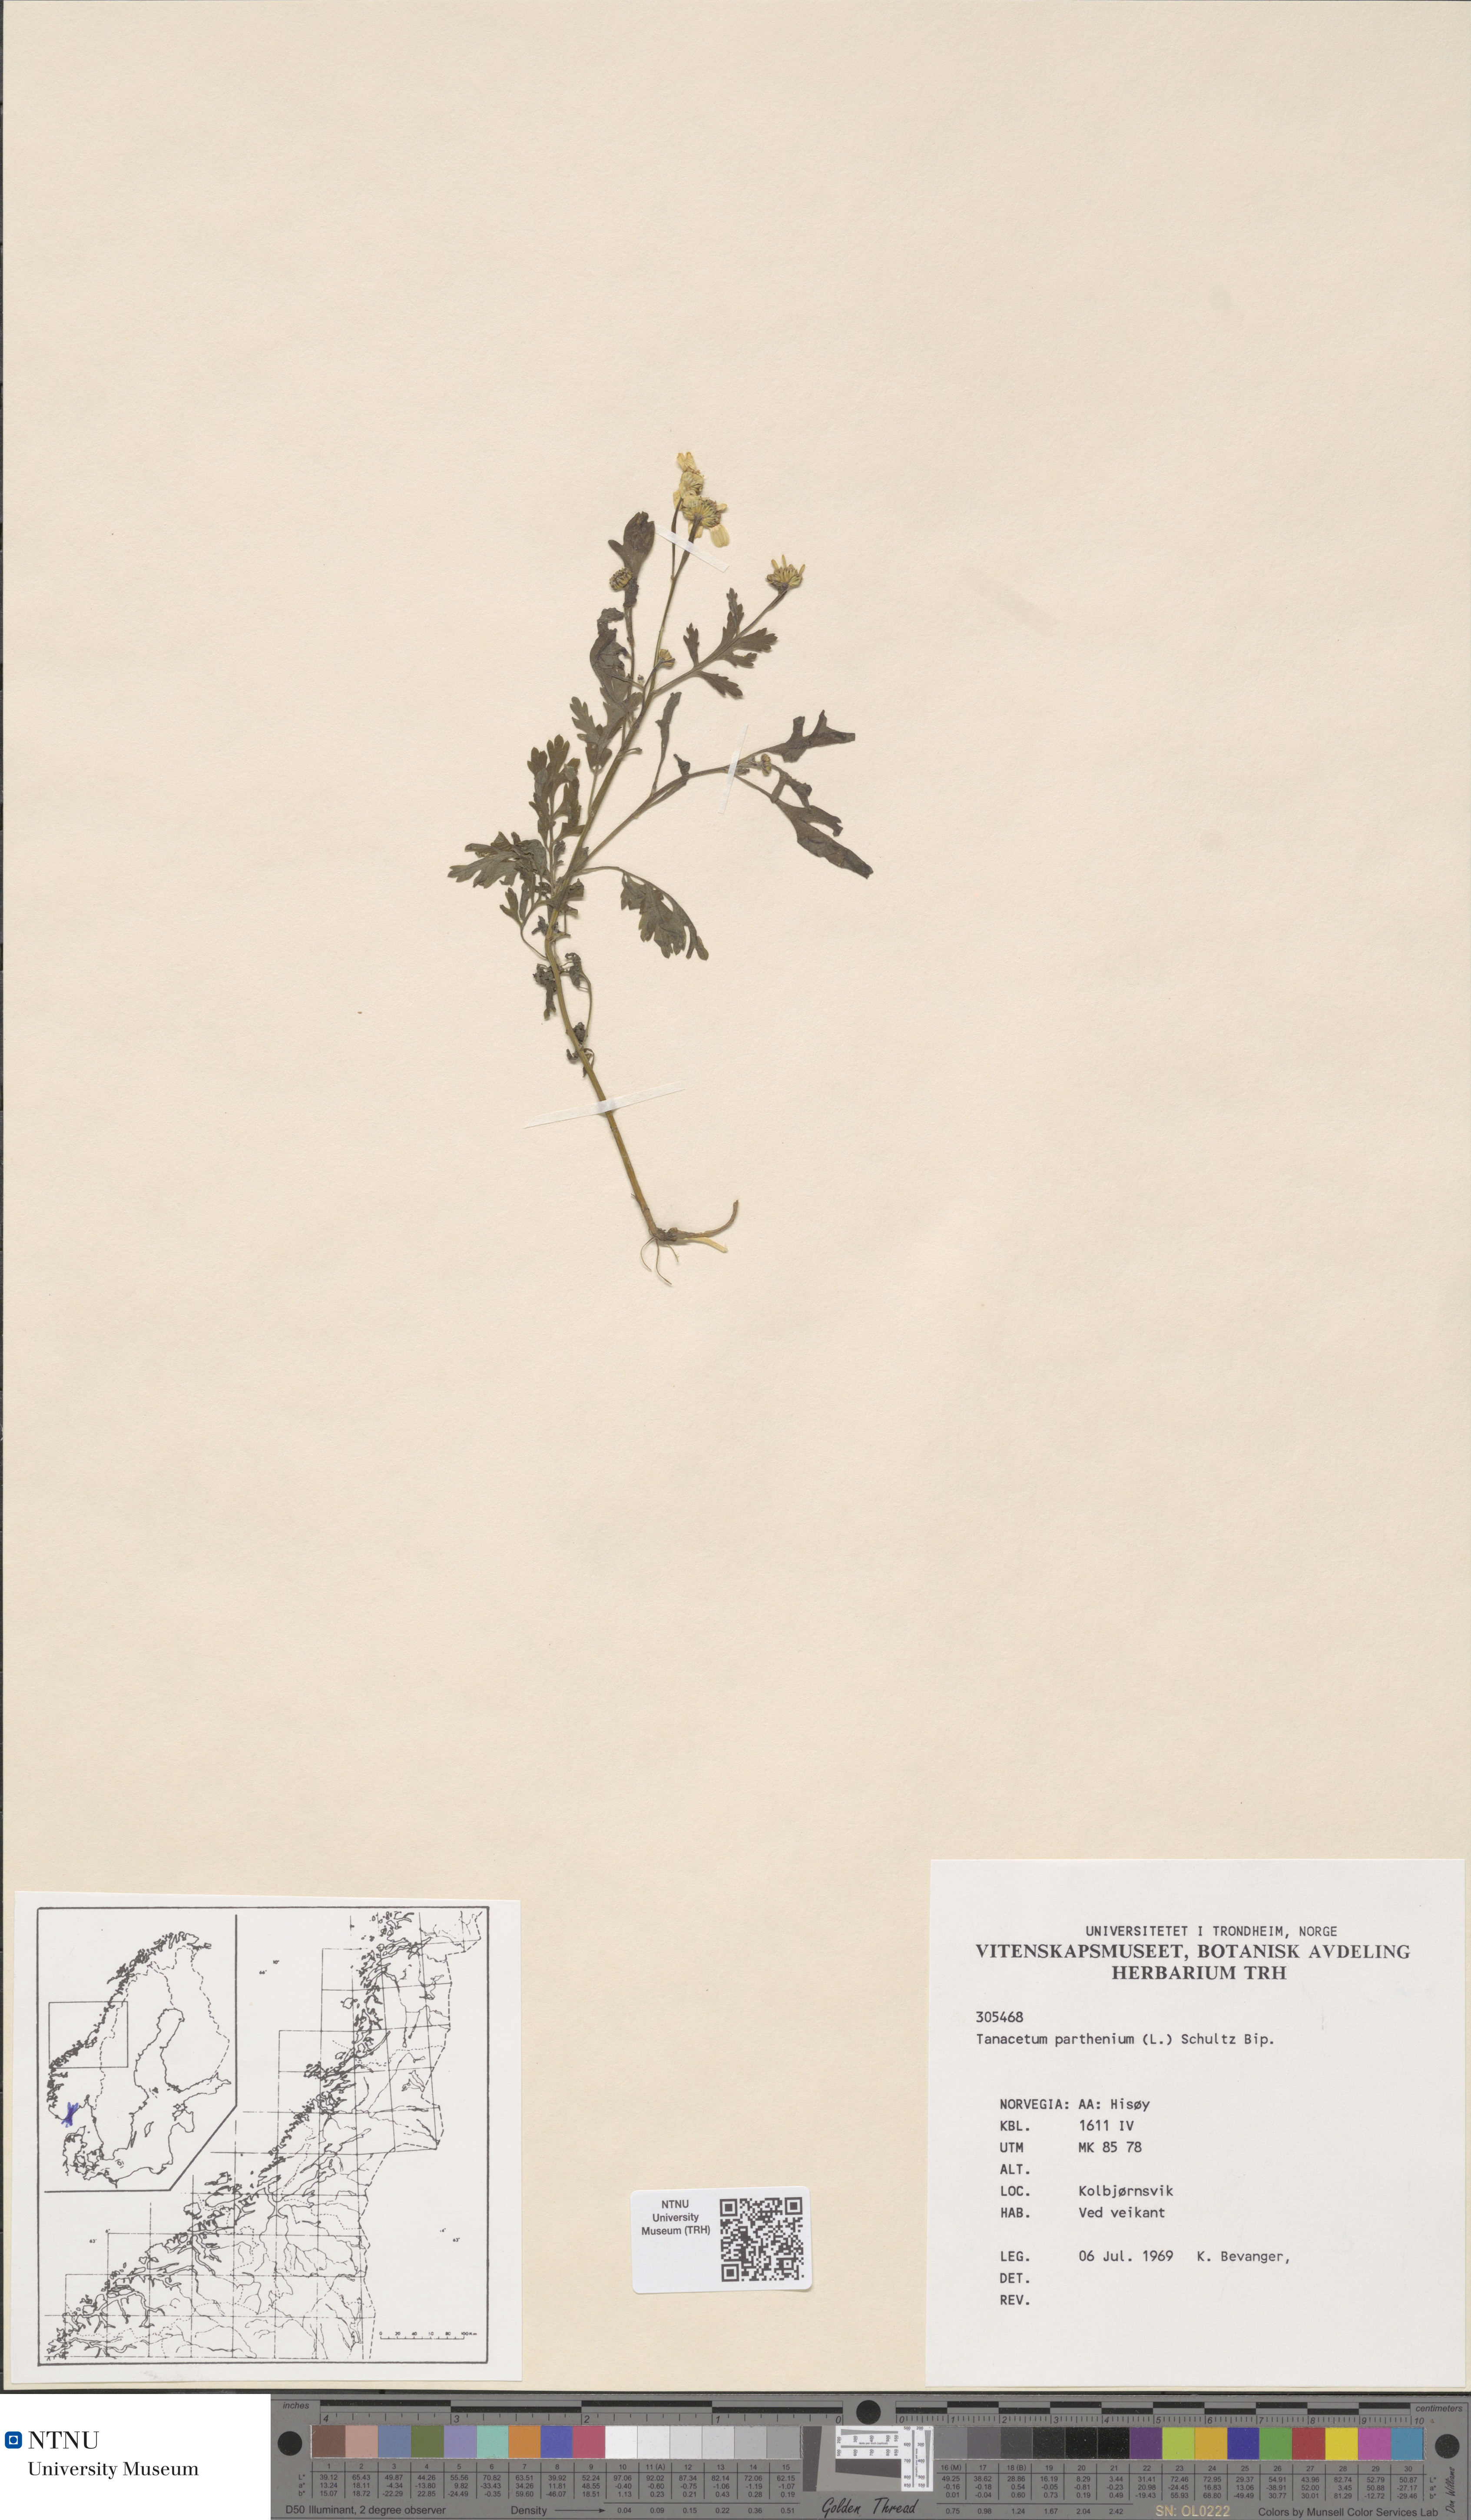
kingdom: Plantae
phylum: Tracheophyta
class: Magnoliopsida
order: Asterales
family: Asteraceae
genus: Tanacetum
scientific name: Tanacetum parthenium
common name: Feverfew
